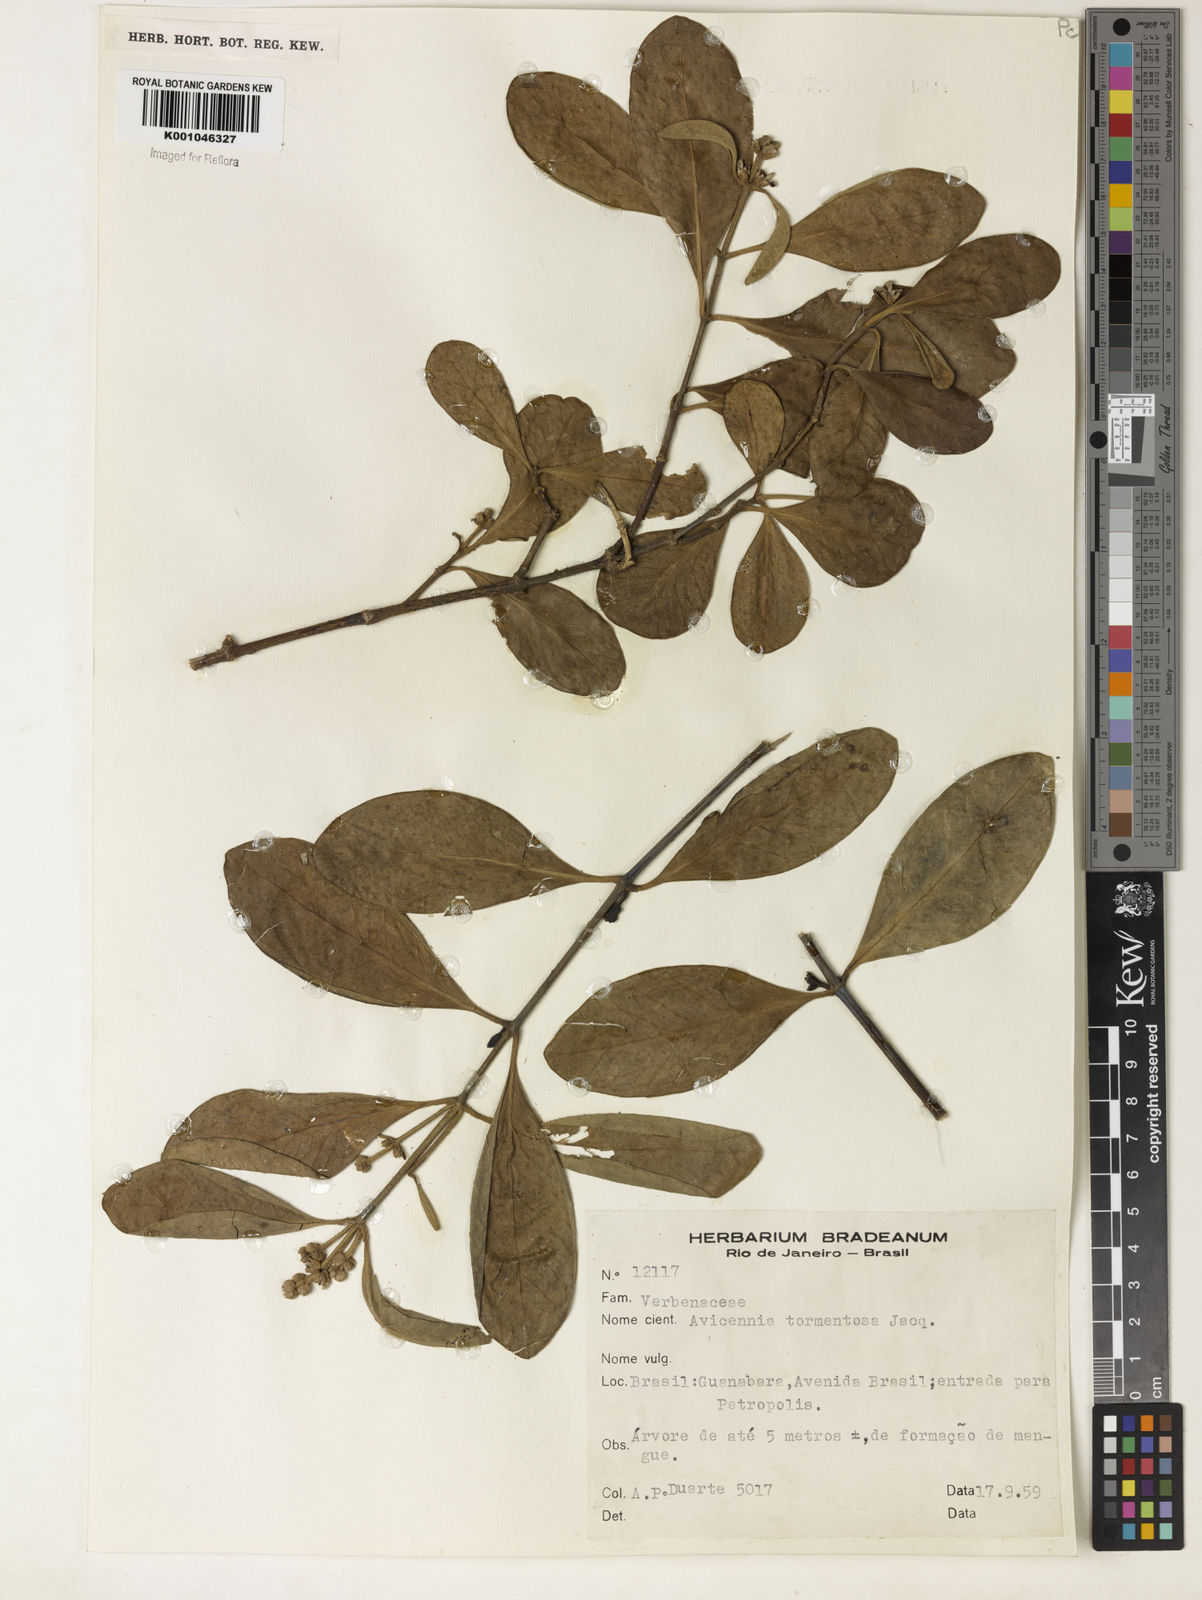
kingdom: Plantae
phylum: Tracheophyta
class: Magnoliopsida
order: Lamiales
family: Acanthaceae
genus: Avicennia
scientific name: Avicennia germinans
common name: Black mangrove
